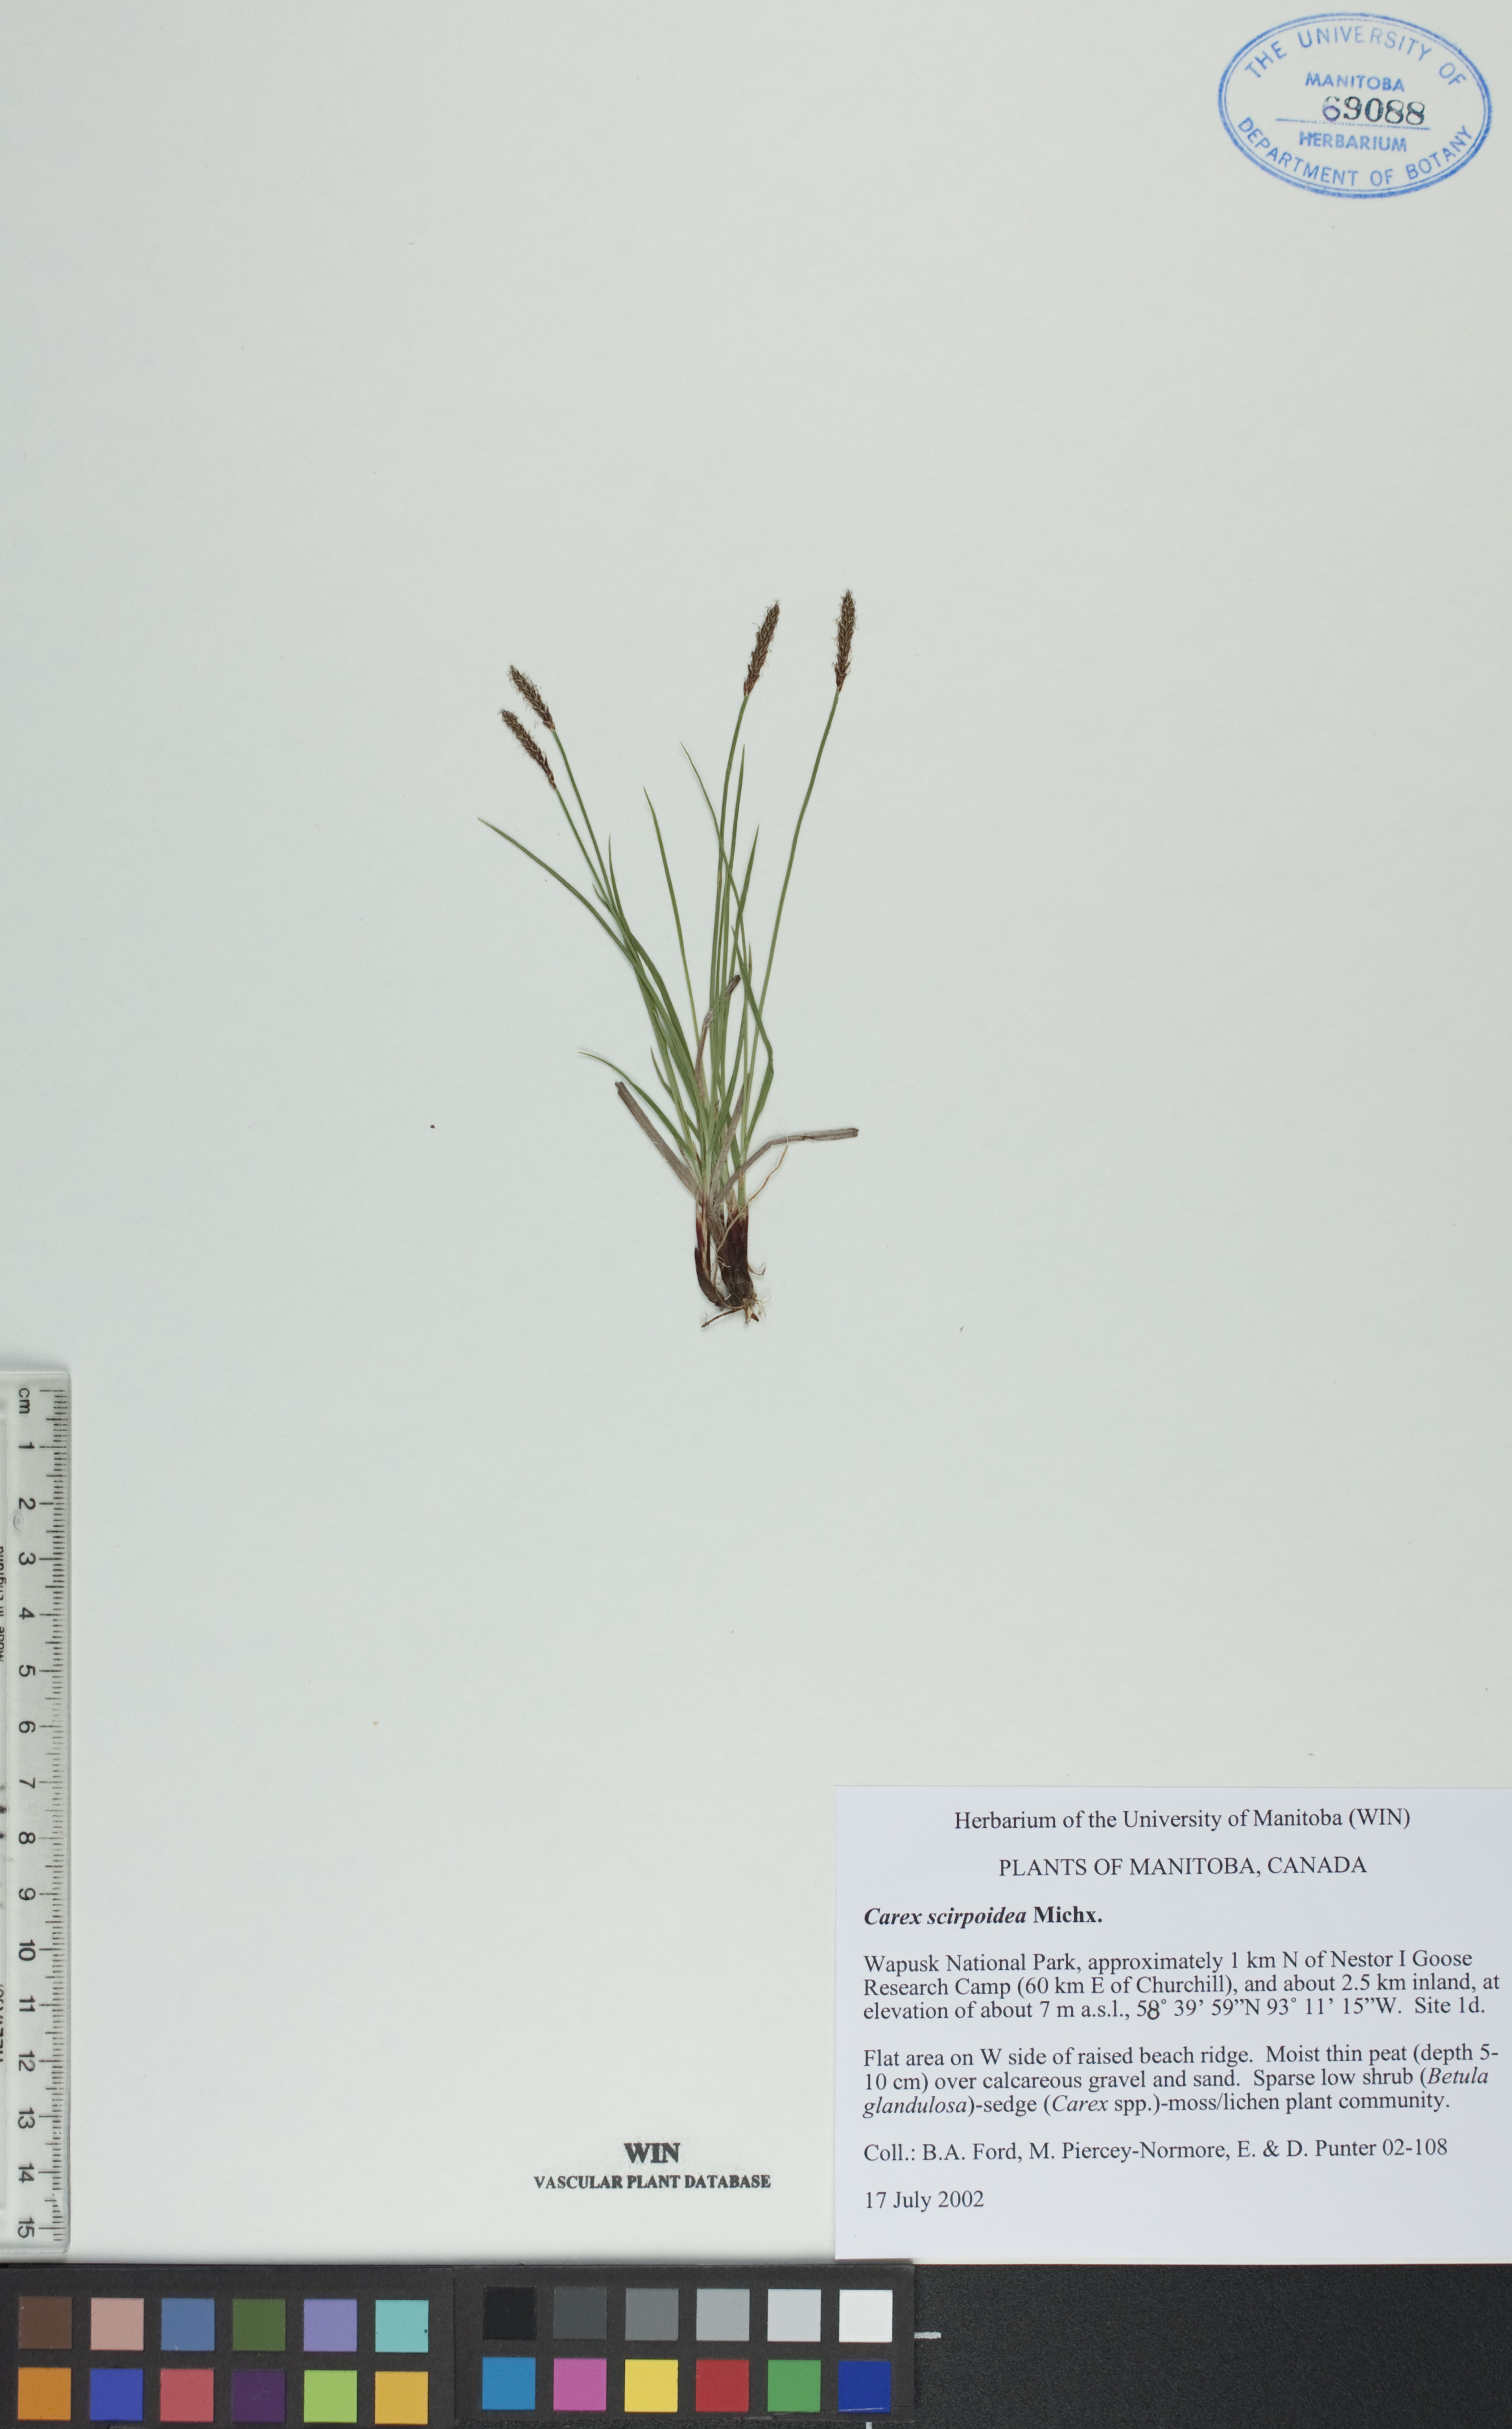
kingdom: Plantae
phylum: Tracheophyta
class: Liliopsida
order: Poales
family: Cyperaceae
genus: Carex
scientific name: Carex scirpoidea
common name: Canada single-spike sedge
